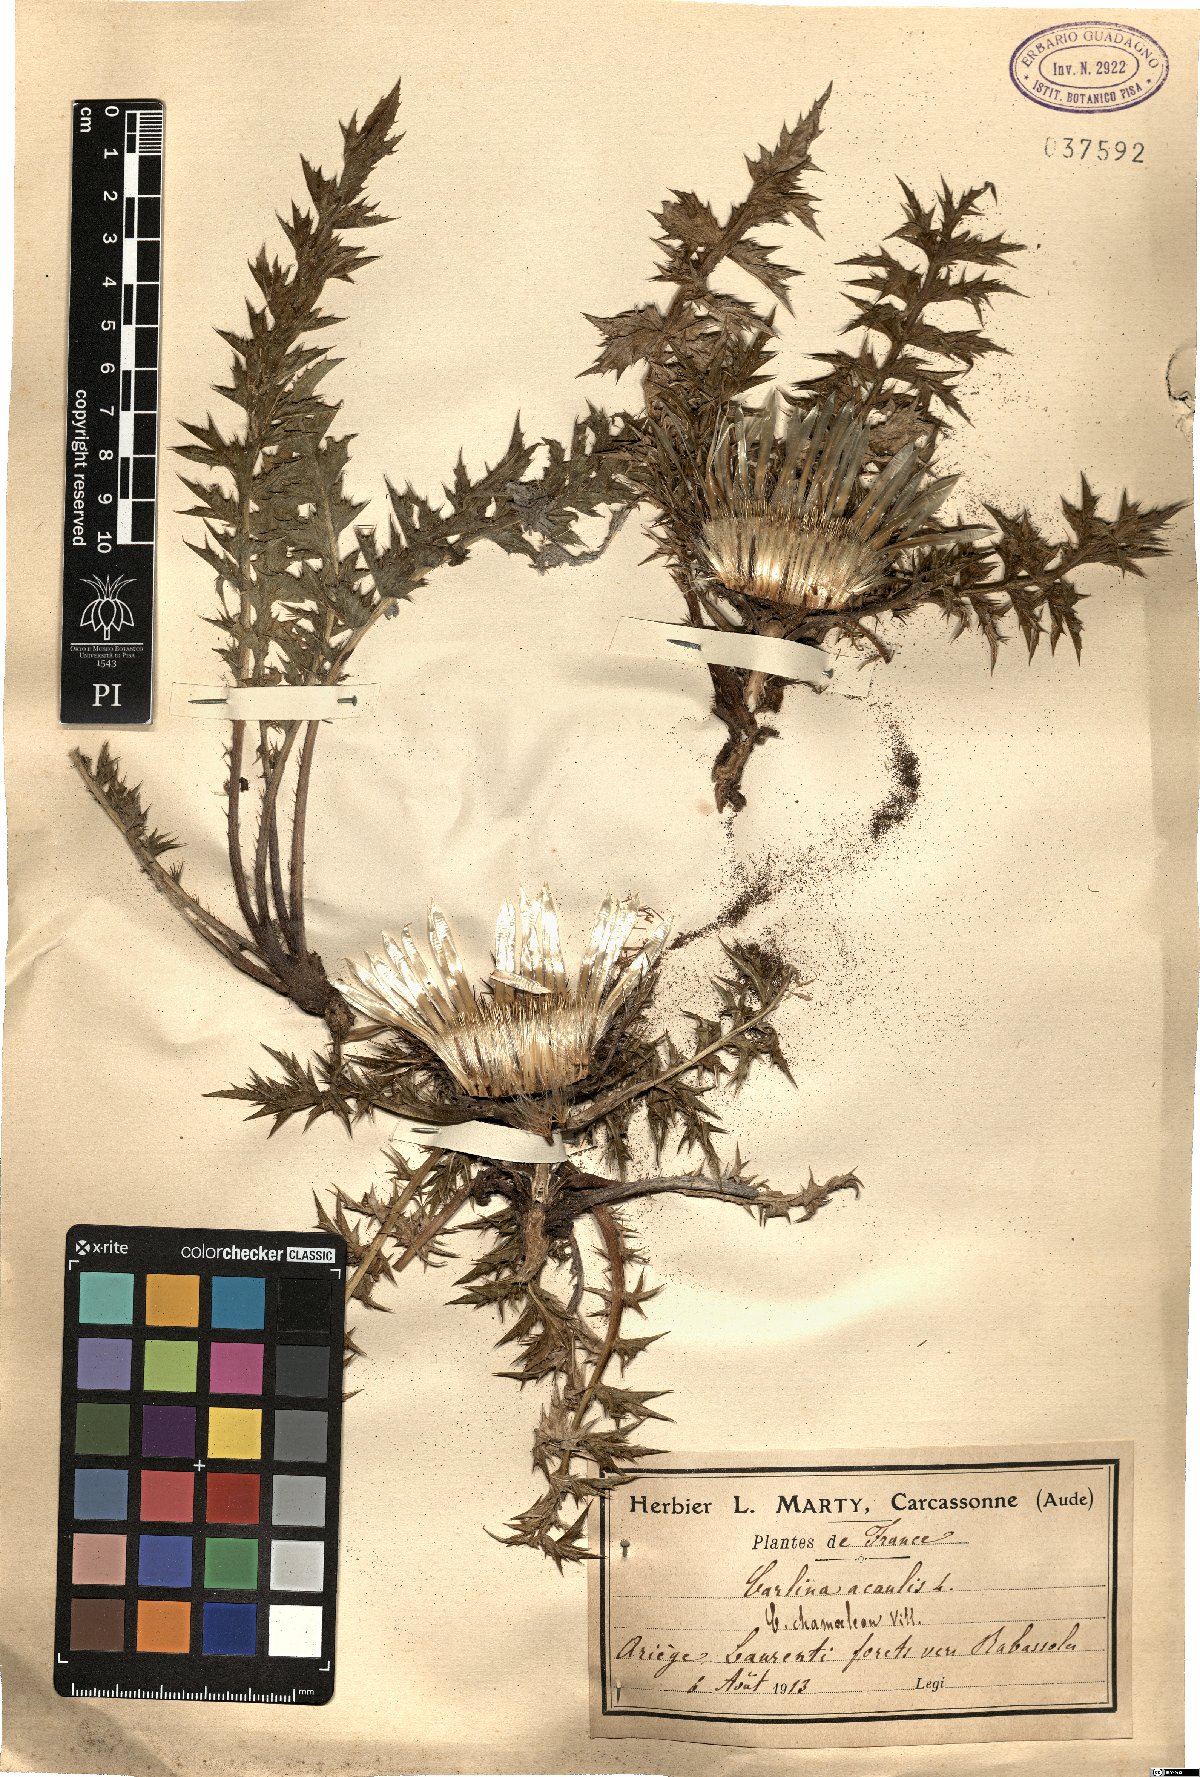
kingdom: Plantae
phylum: Tracheophyta
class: Magnoliopsida
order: Asterales
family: Asteraceae
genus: Carlina
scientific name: Carlina acaulis
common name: Stemless carline thistle
